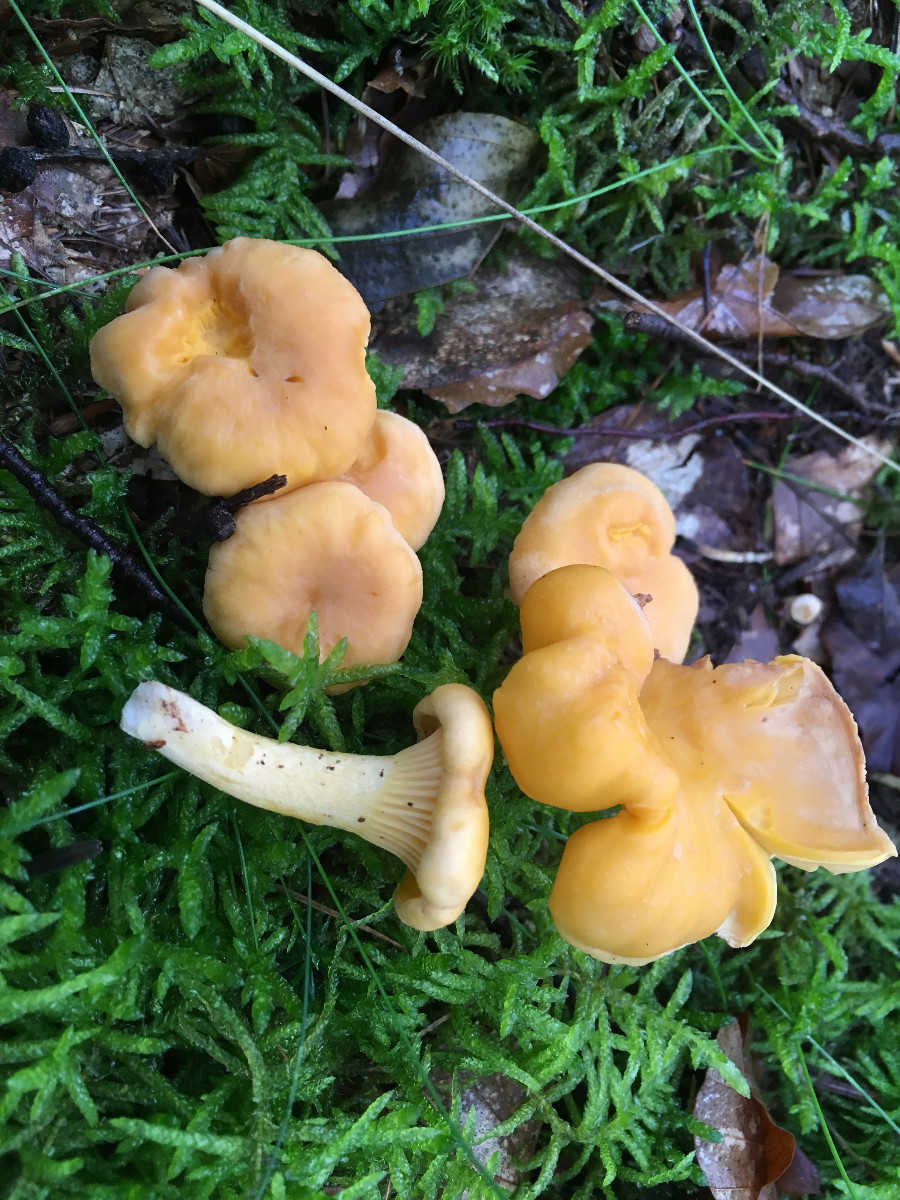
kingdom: Fungi
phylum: Basidiomycota
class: Agaricomycetes
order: Cantharellales
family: Hydnaceae
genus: Cantharellus
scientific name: Cantharellus cibarius
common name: almindelig kantarel
